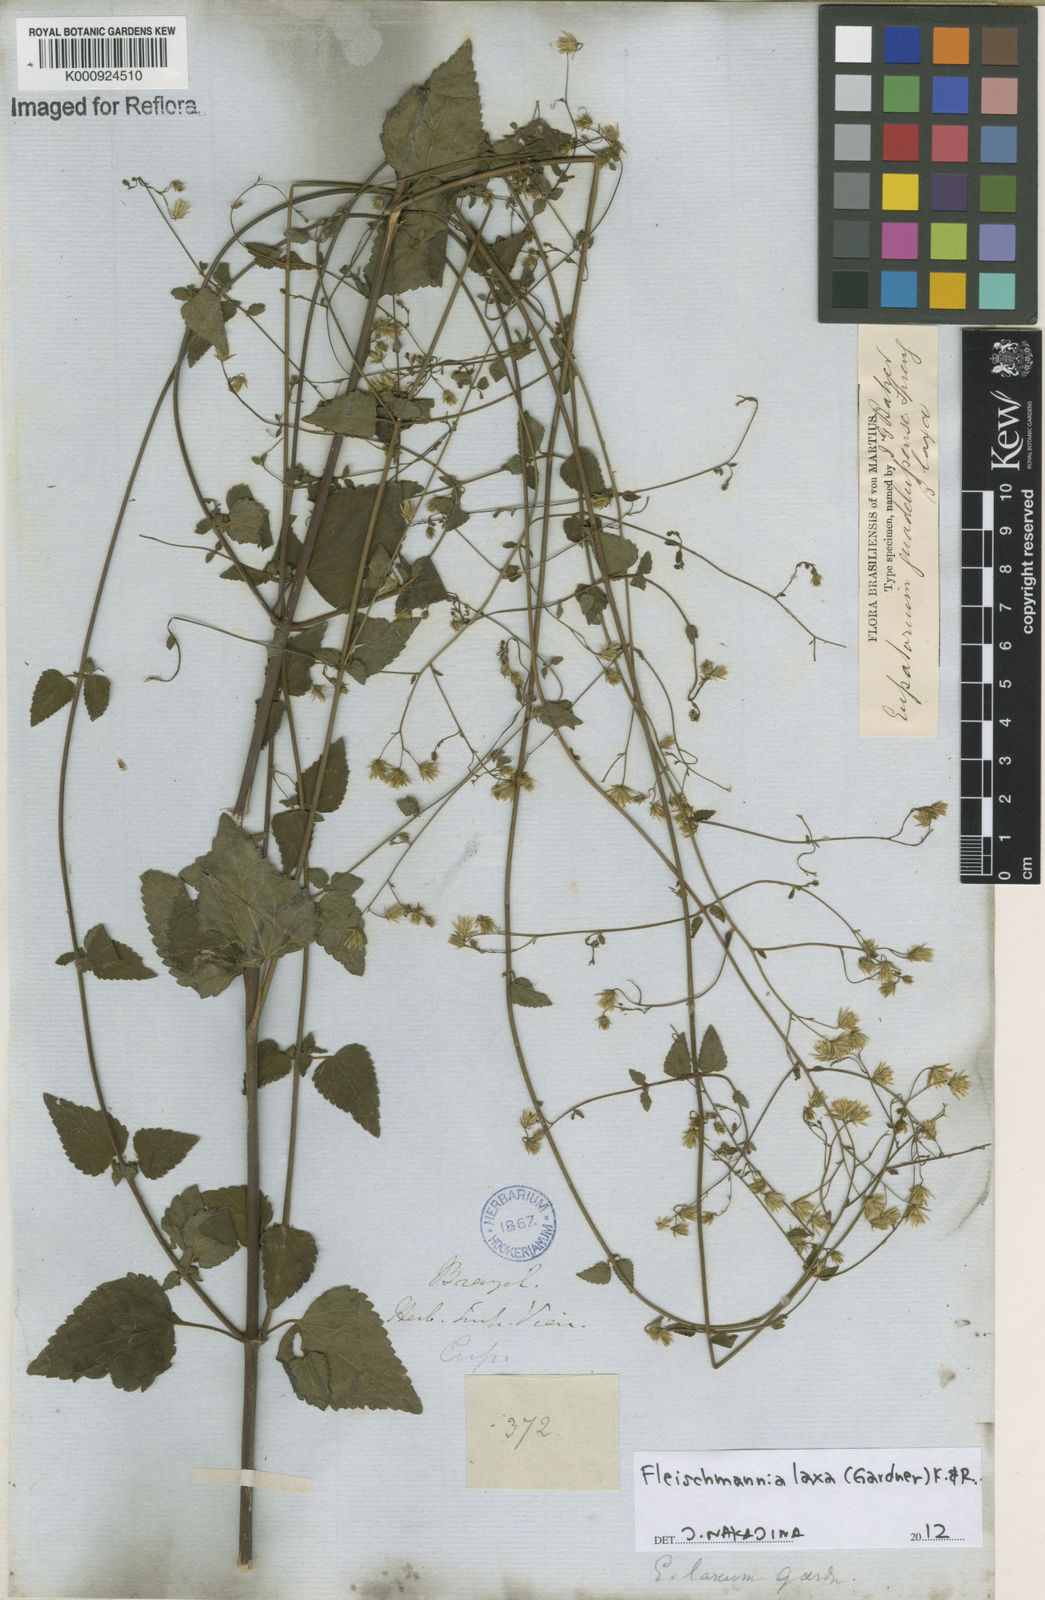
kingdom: Plantae
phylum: Tracheophyta
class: Magnoliopsida
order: Asterales
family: Asteraceae
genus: Fleischmannia
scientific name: Fleischmannia laxa
